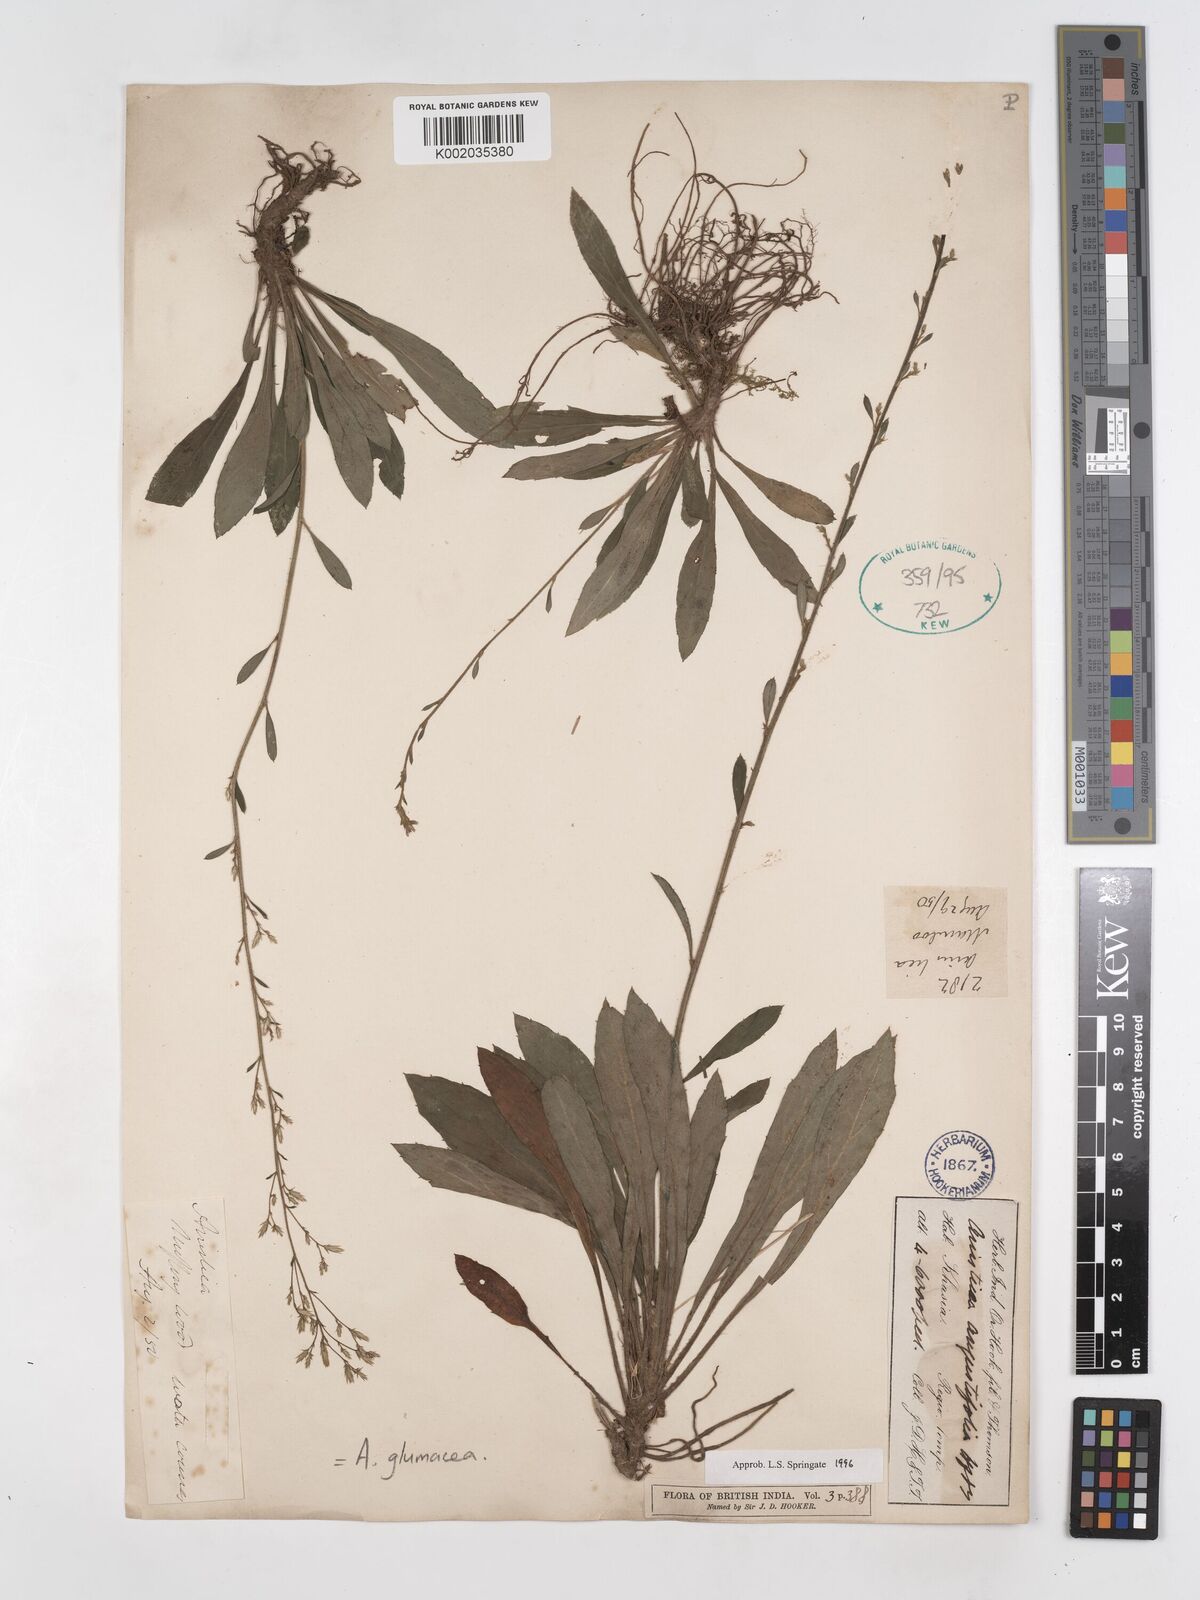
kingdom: Plantae
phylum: Tracheophyta
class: Magnoliopsida
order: Asterales
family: Asteraceae
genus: Ainsliaea
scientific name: Ainsliaea angustifolia
